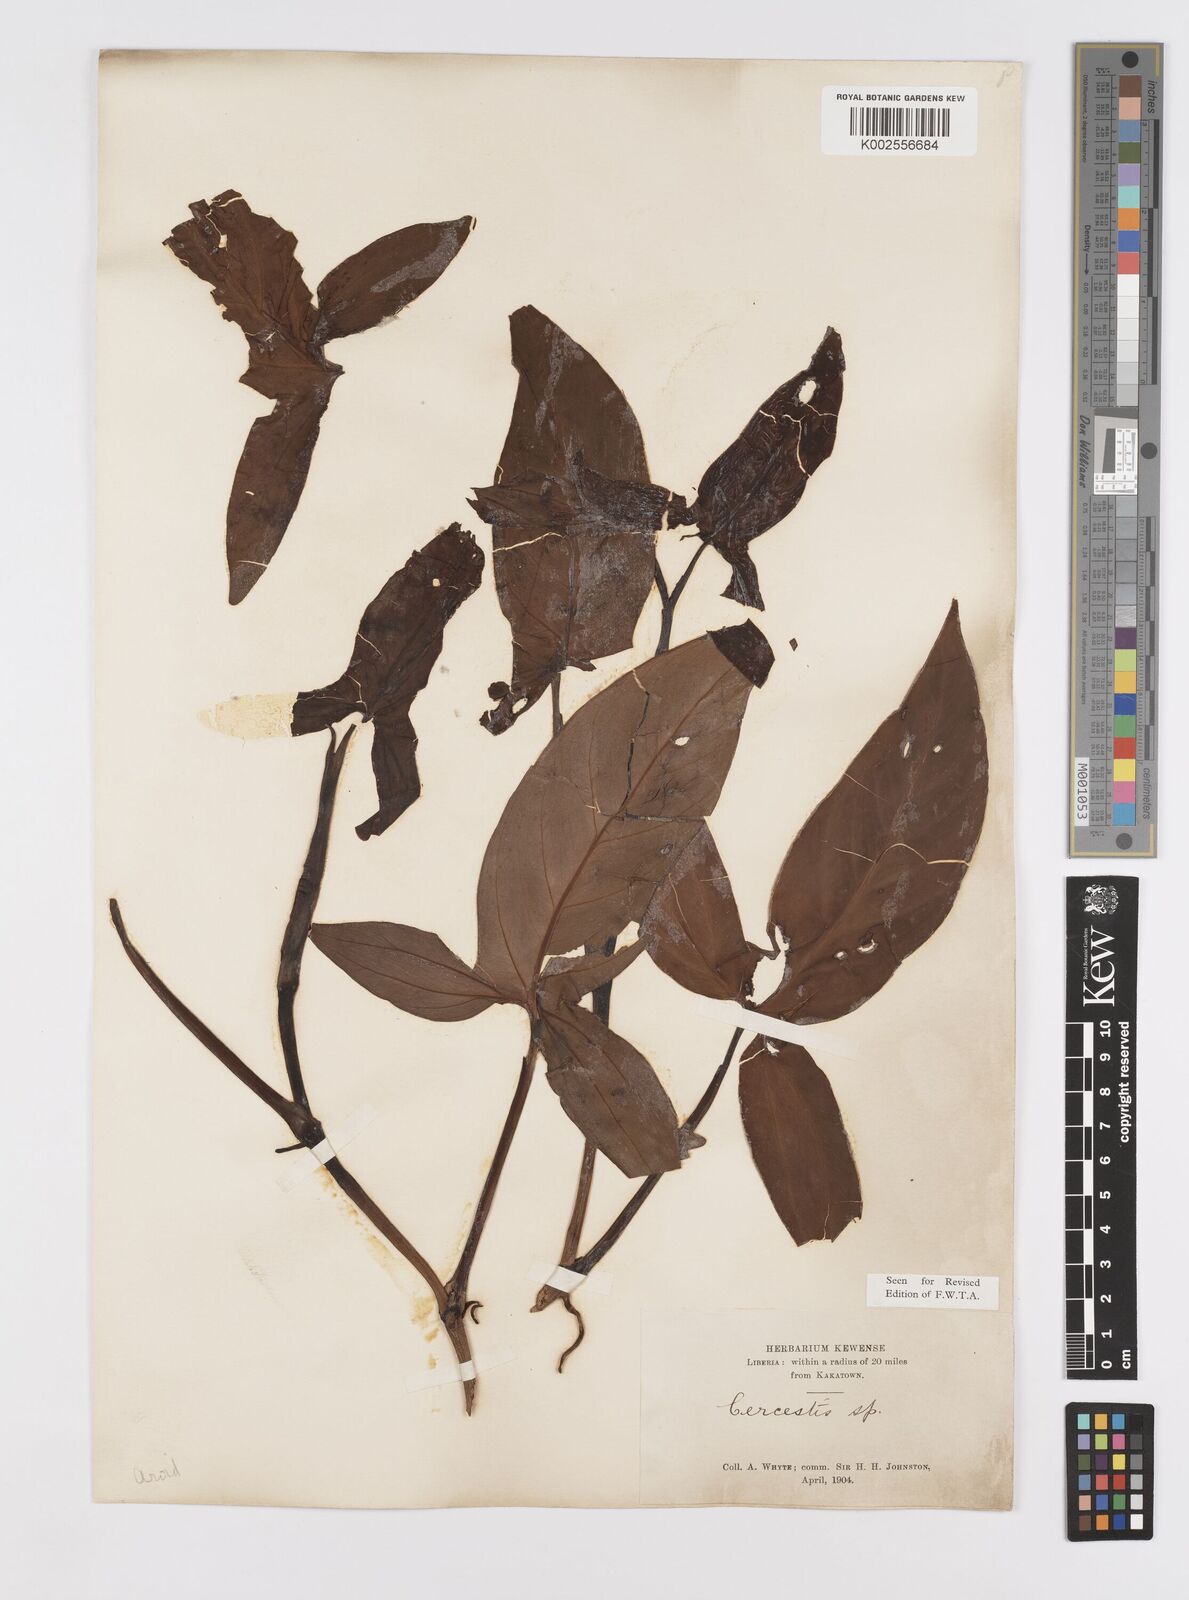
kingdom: Plantae
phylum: Tracheophyta
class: Liliopsida
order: Alismatales
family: Araceae
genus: Cercestis
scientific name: Cercestis afzelii
